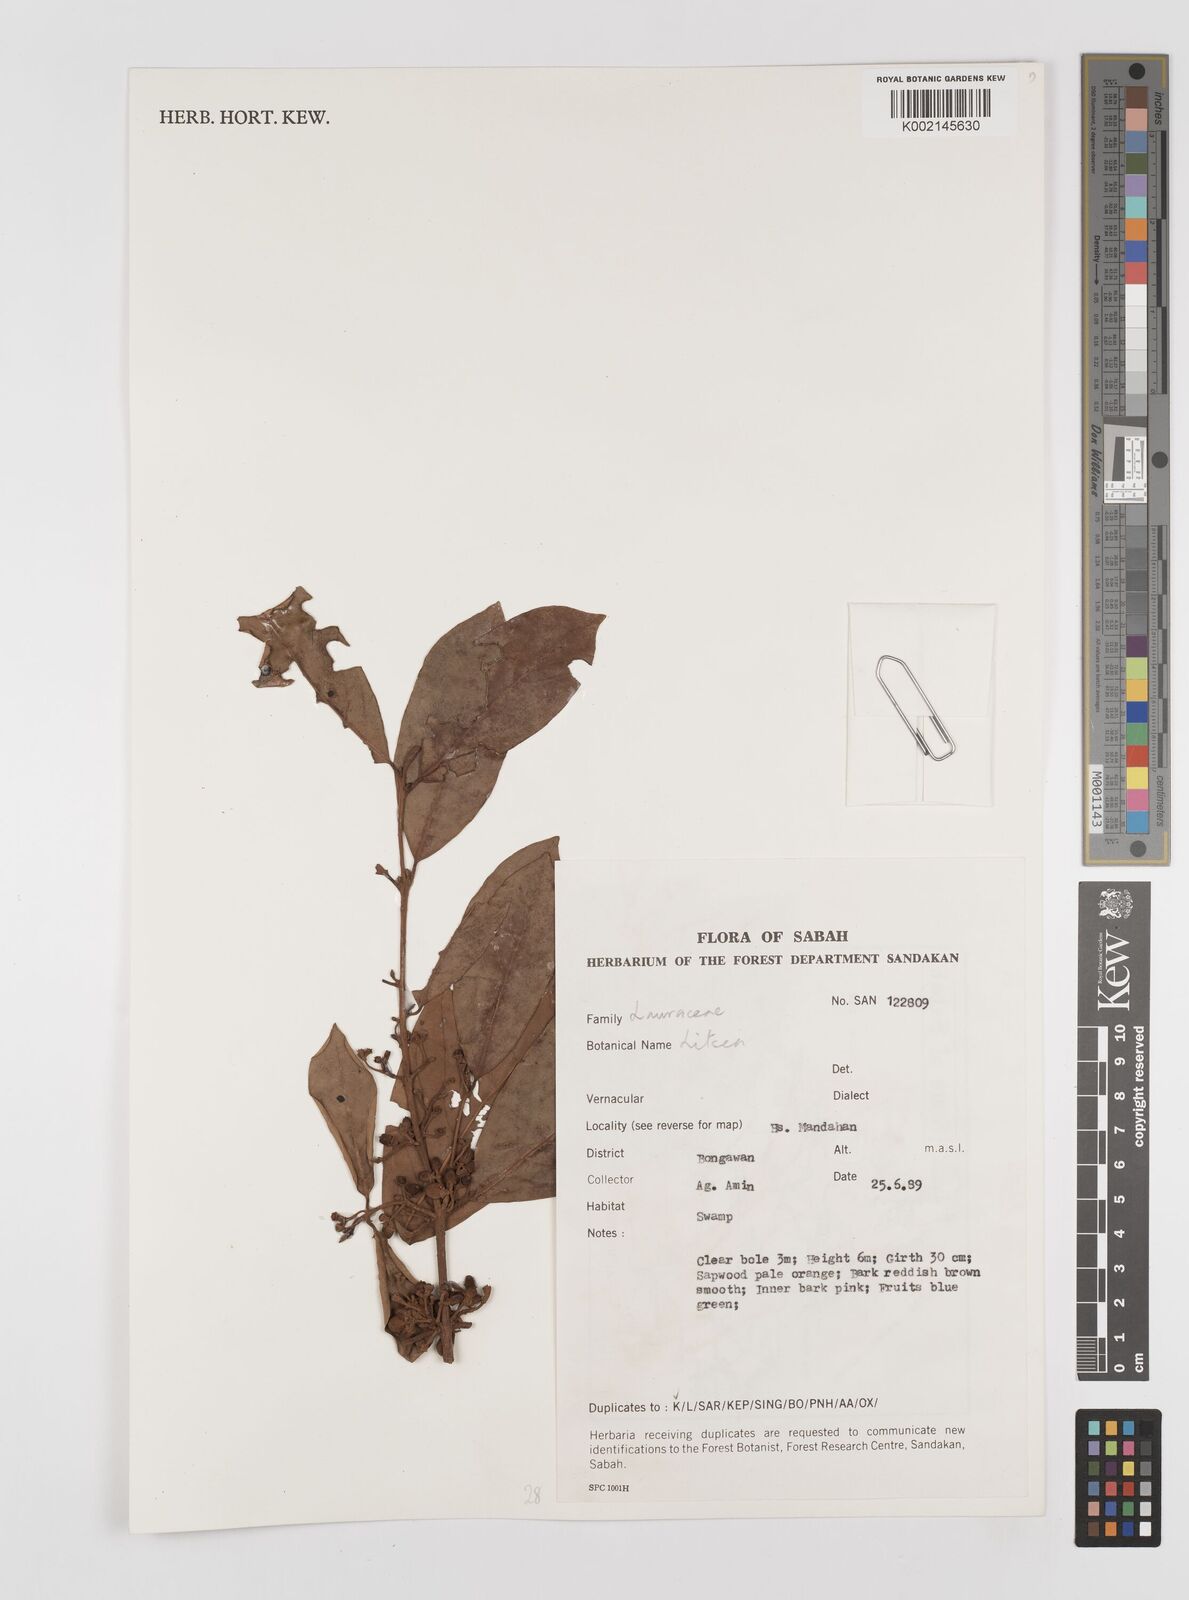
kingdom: Plantae
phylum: Tracheophyta
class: Magnoliopsida
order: Laurales
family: Lauraceae
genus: Litsea
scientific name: Litsea
